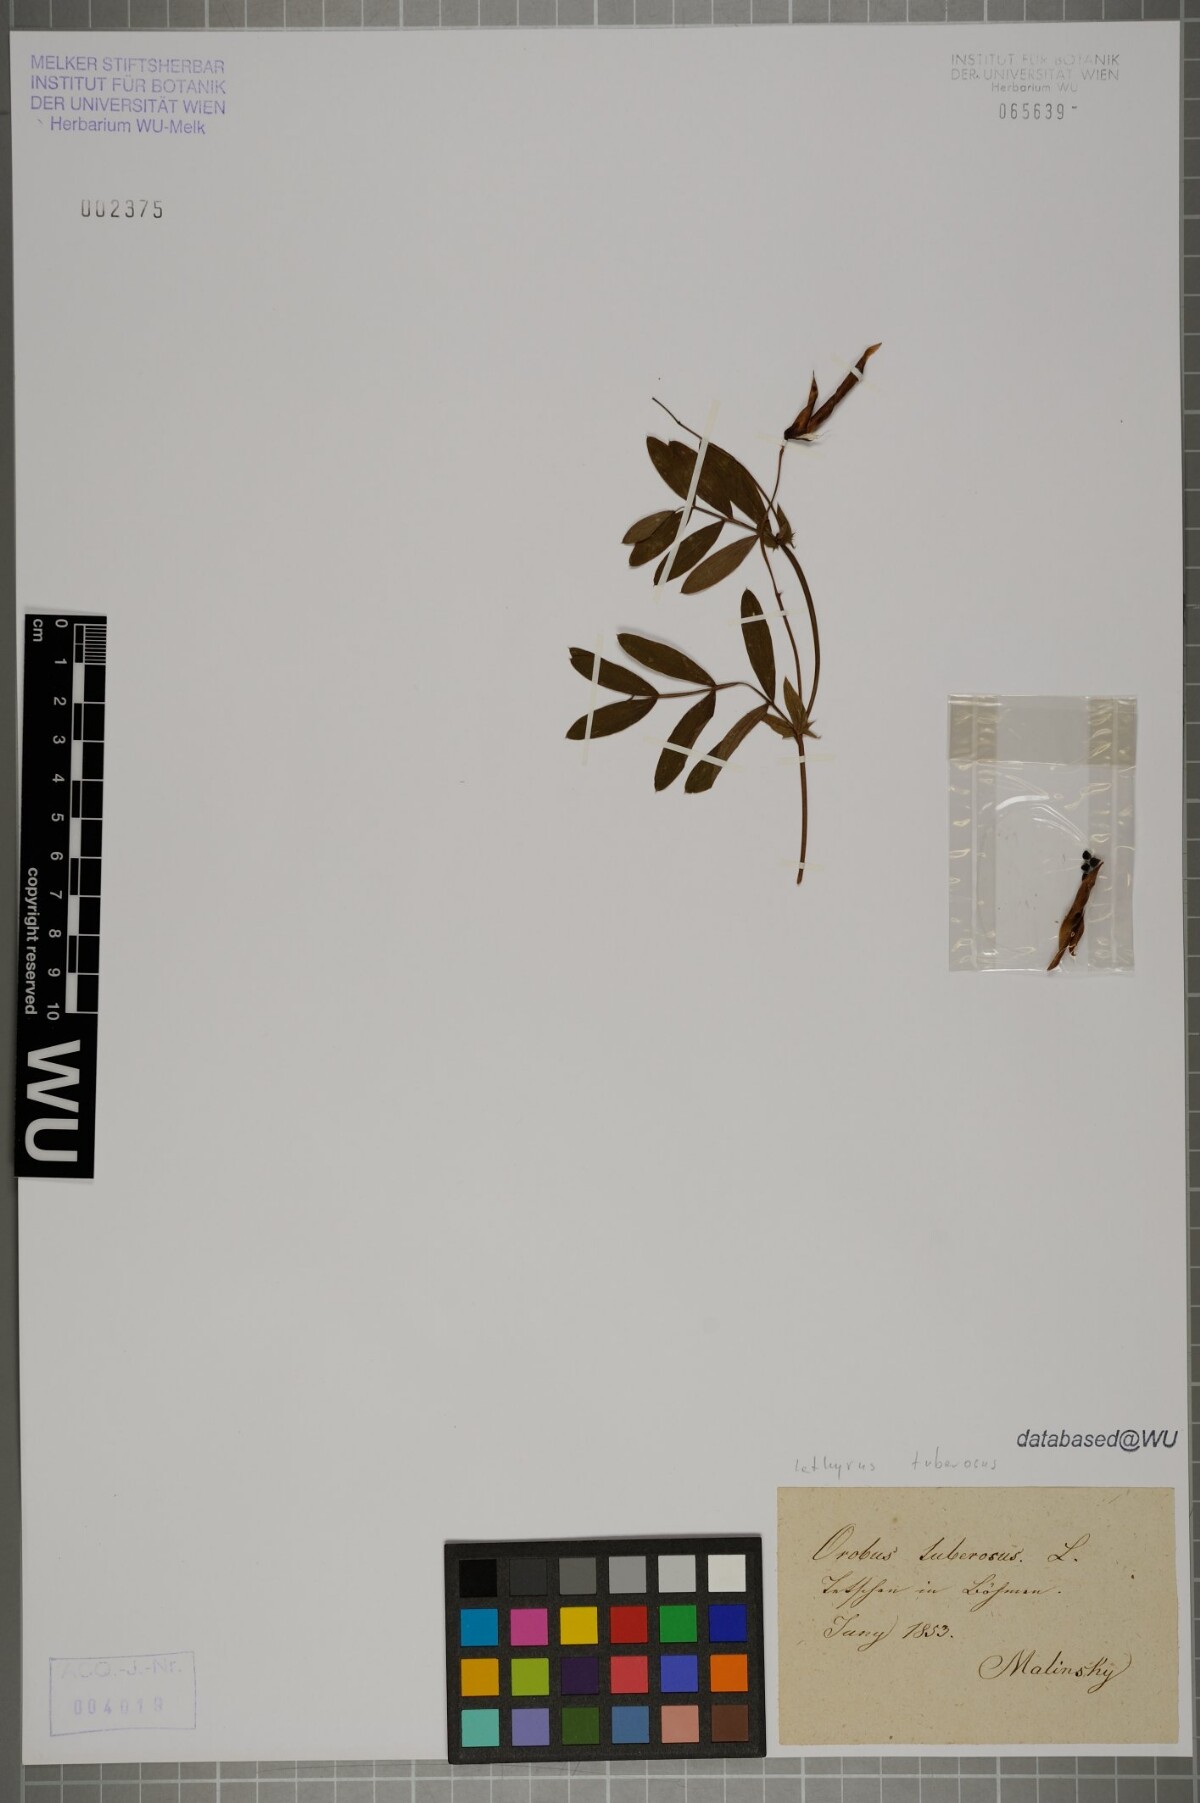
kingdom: Plantae
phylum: Tracheophyta
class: Magnoliopsida
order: Fabales
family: Fabaceae
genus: Lathyrus
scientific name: Lathyrus tuberosus
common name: Tuberous pea
